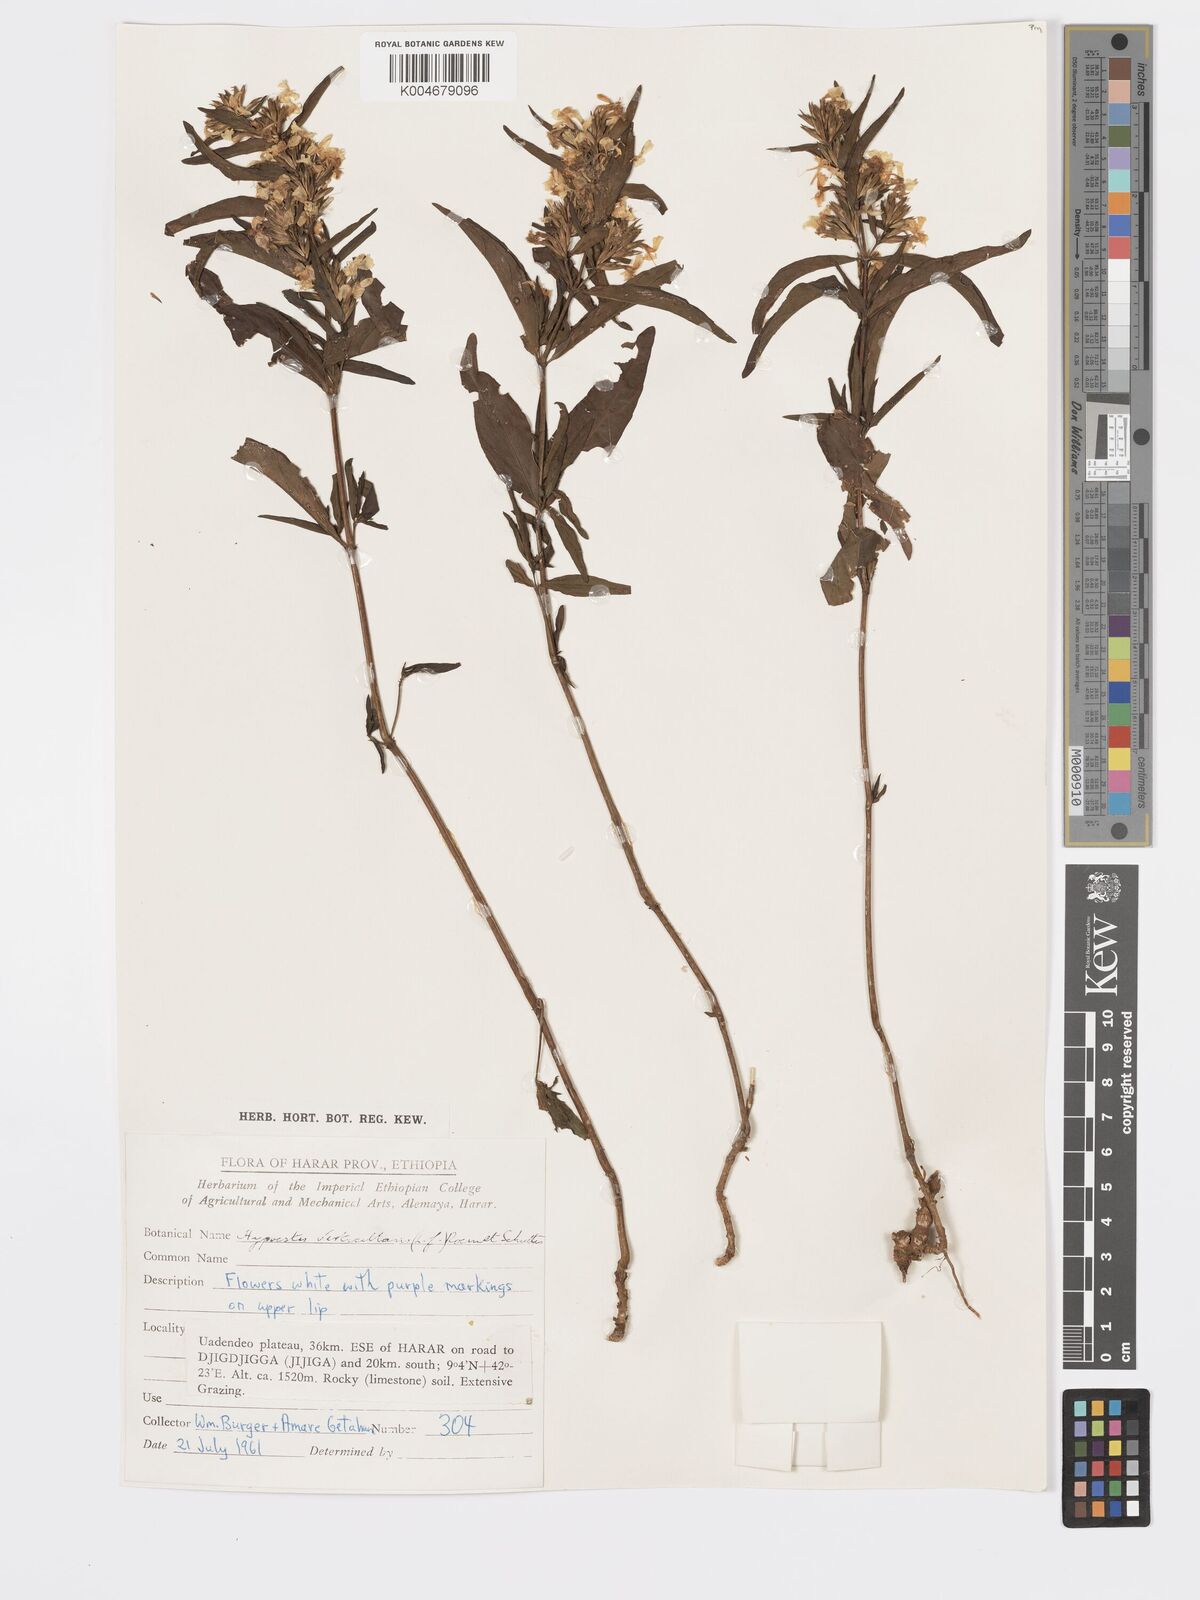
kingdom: Plantae
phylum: Tracheophyta
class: Magnoliopsida
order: Lamiales
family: Acanthaceae
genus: Hypoestes
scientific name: Hypoestes forskaolii
